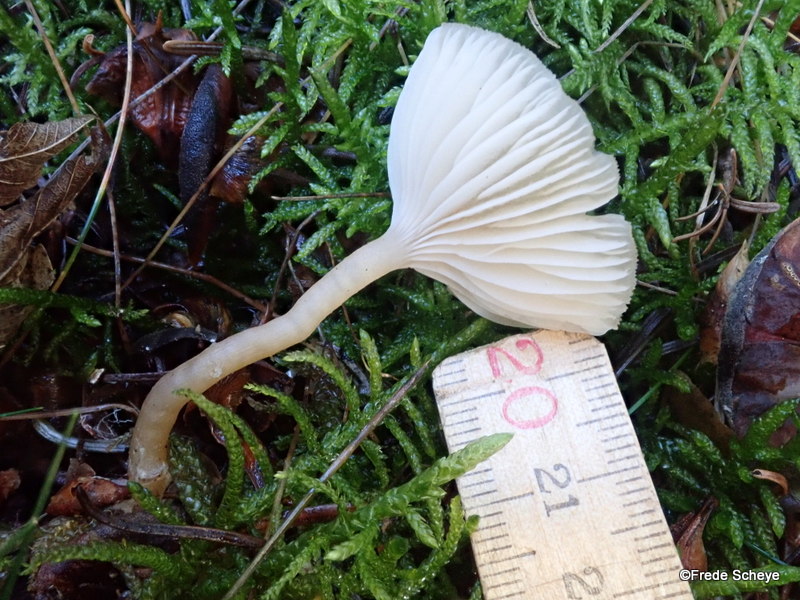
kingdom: Fungi
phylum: Basidiomycota
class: Agaricomycetes
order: Agaricales
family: Tricholomataceae
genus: Clitocybe
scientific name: Clitocybe fragrans
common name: vellugtende tragthat
